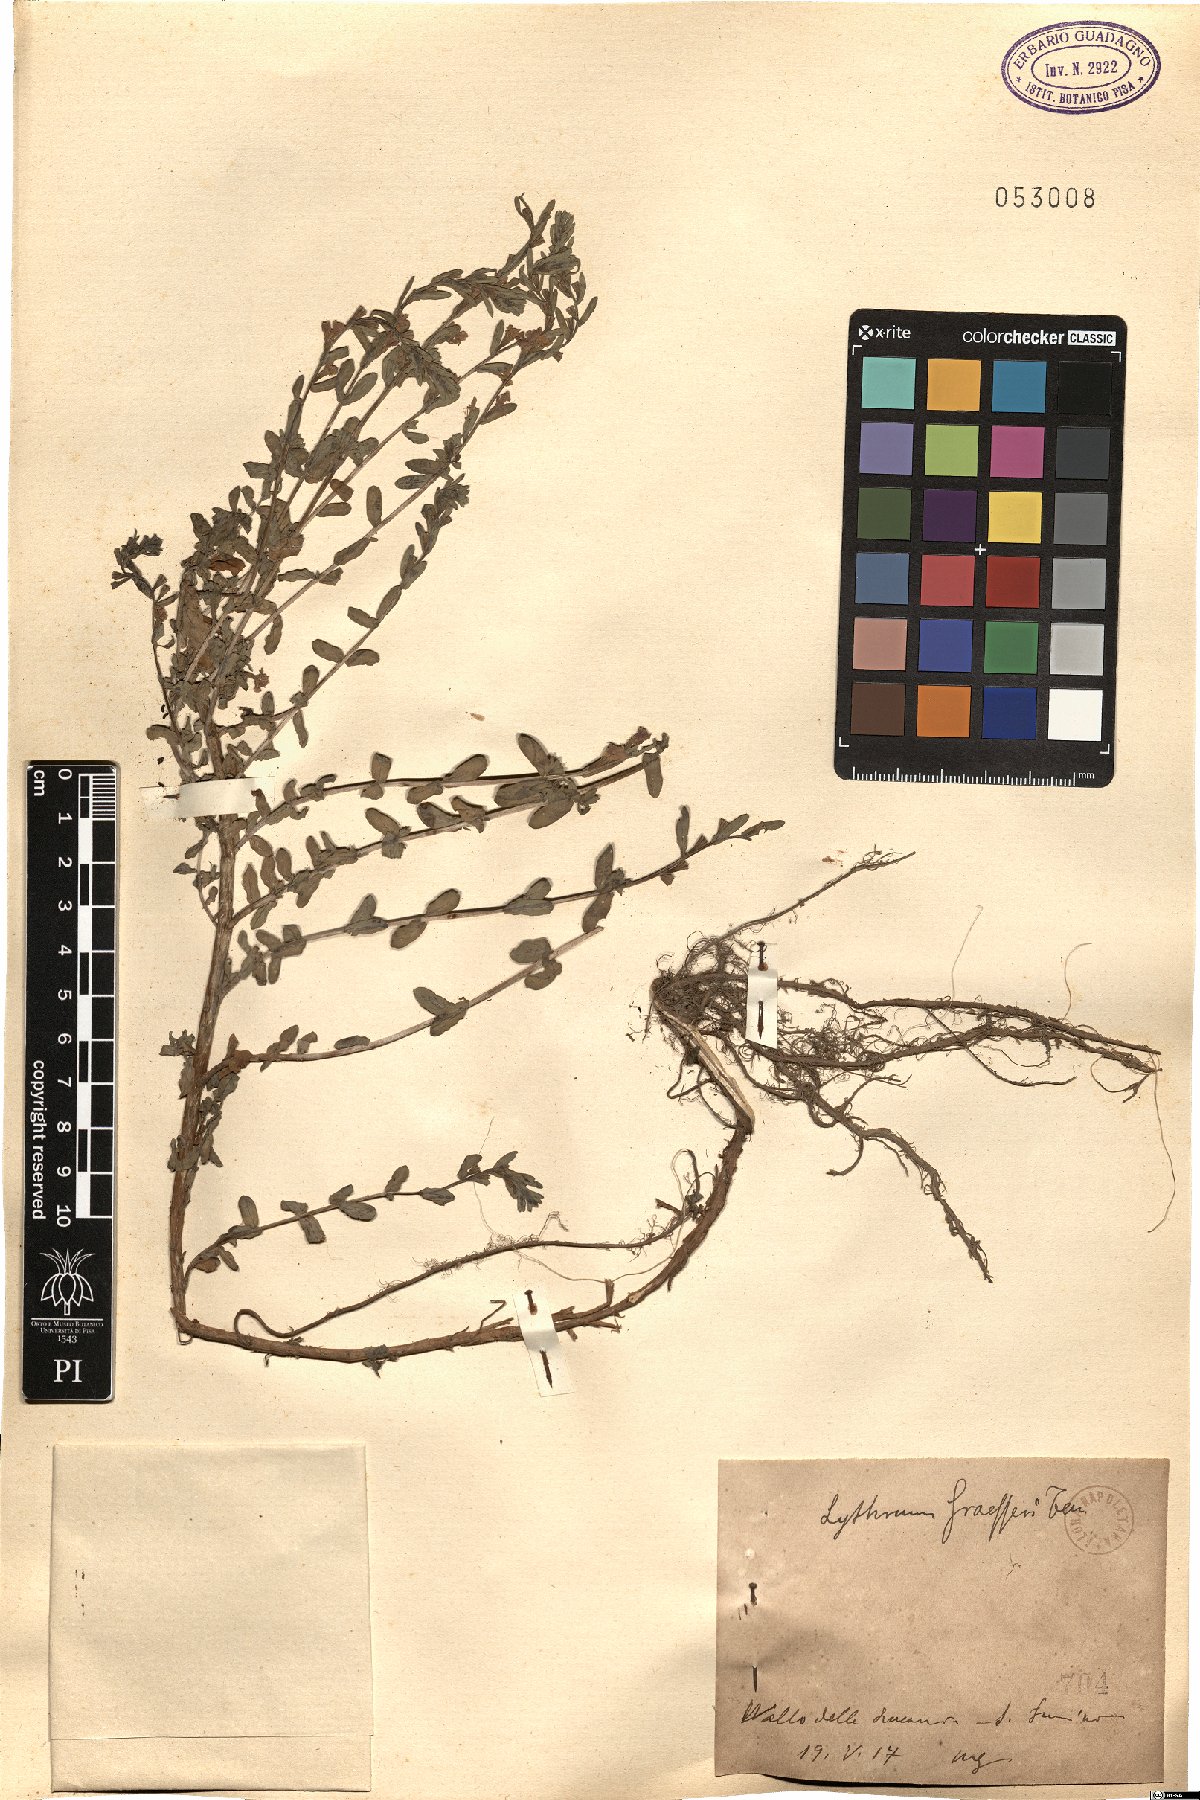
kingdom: Plantae
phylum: Tracheophyta
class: Magnoliopsida
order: Myrtales
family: Lythraceae
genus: Lythrum
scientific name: Lythrum junceum
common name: False grass-poly
